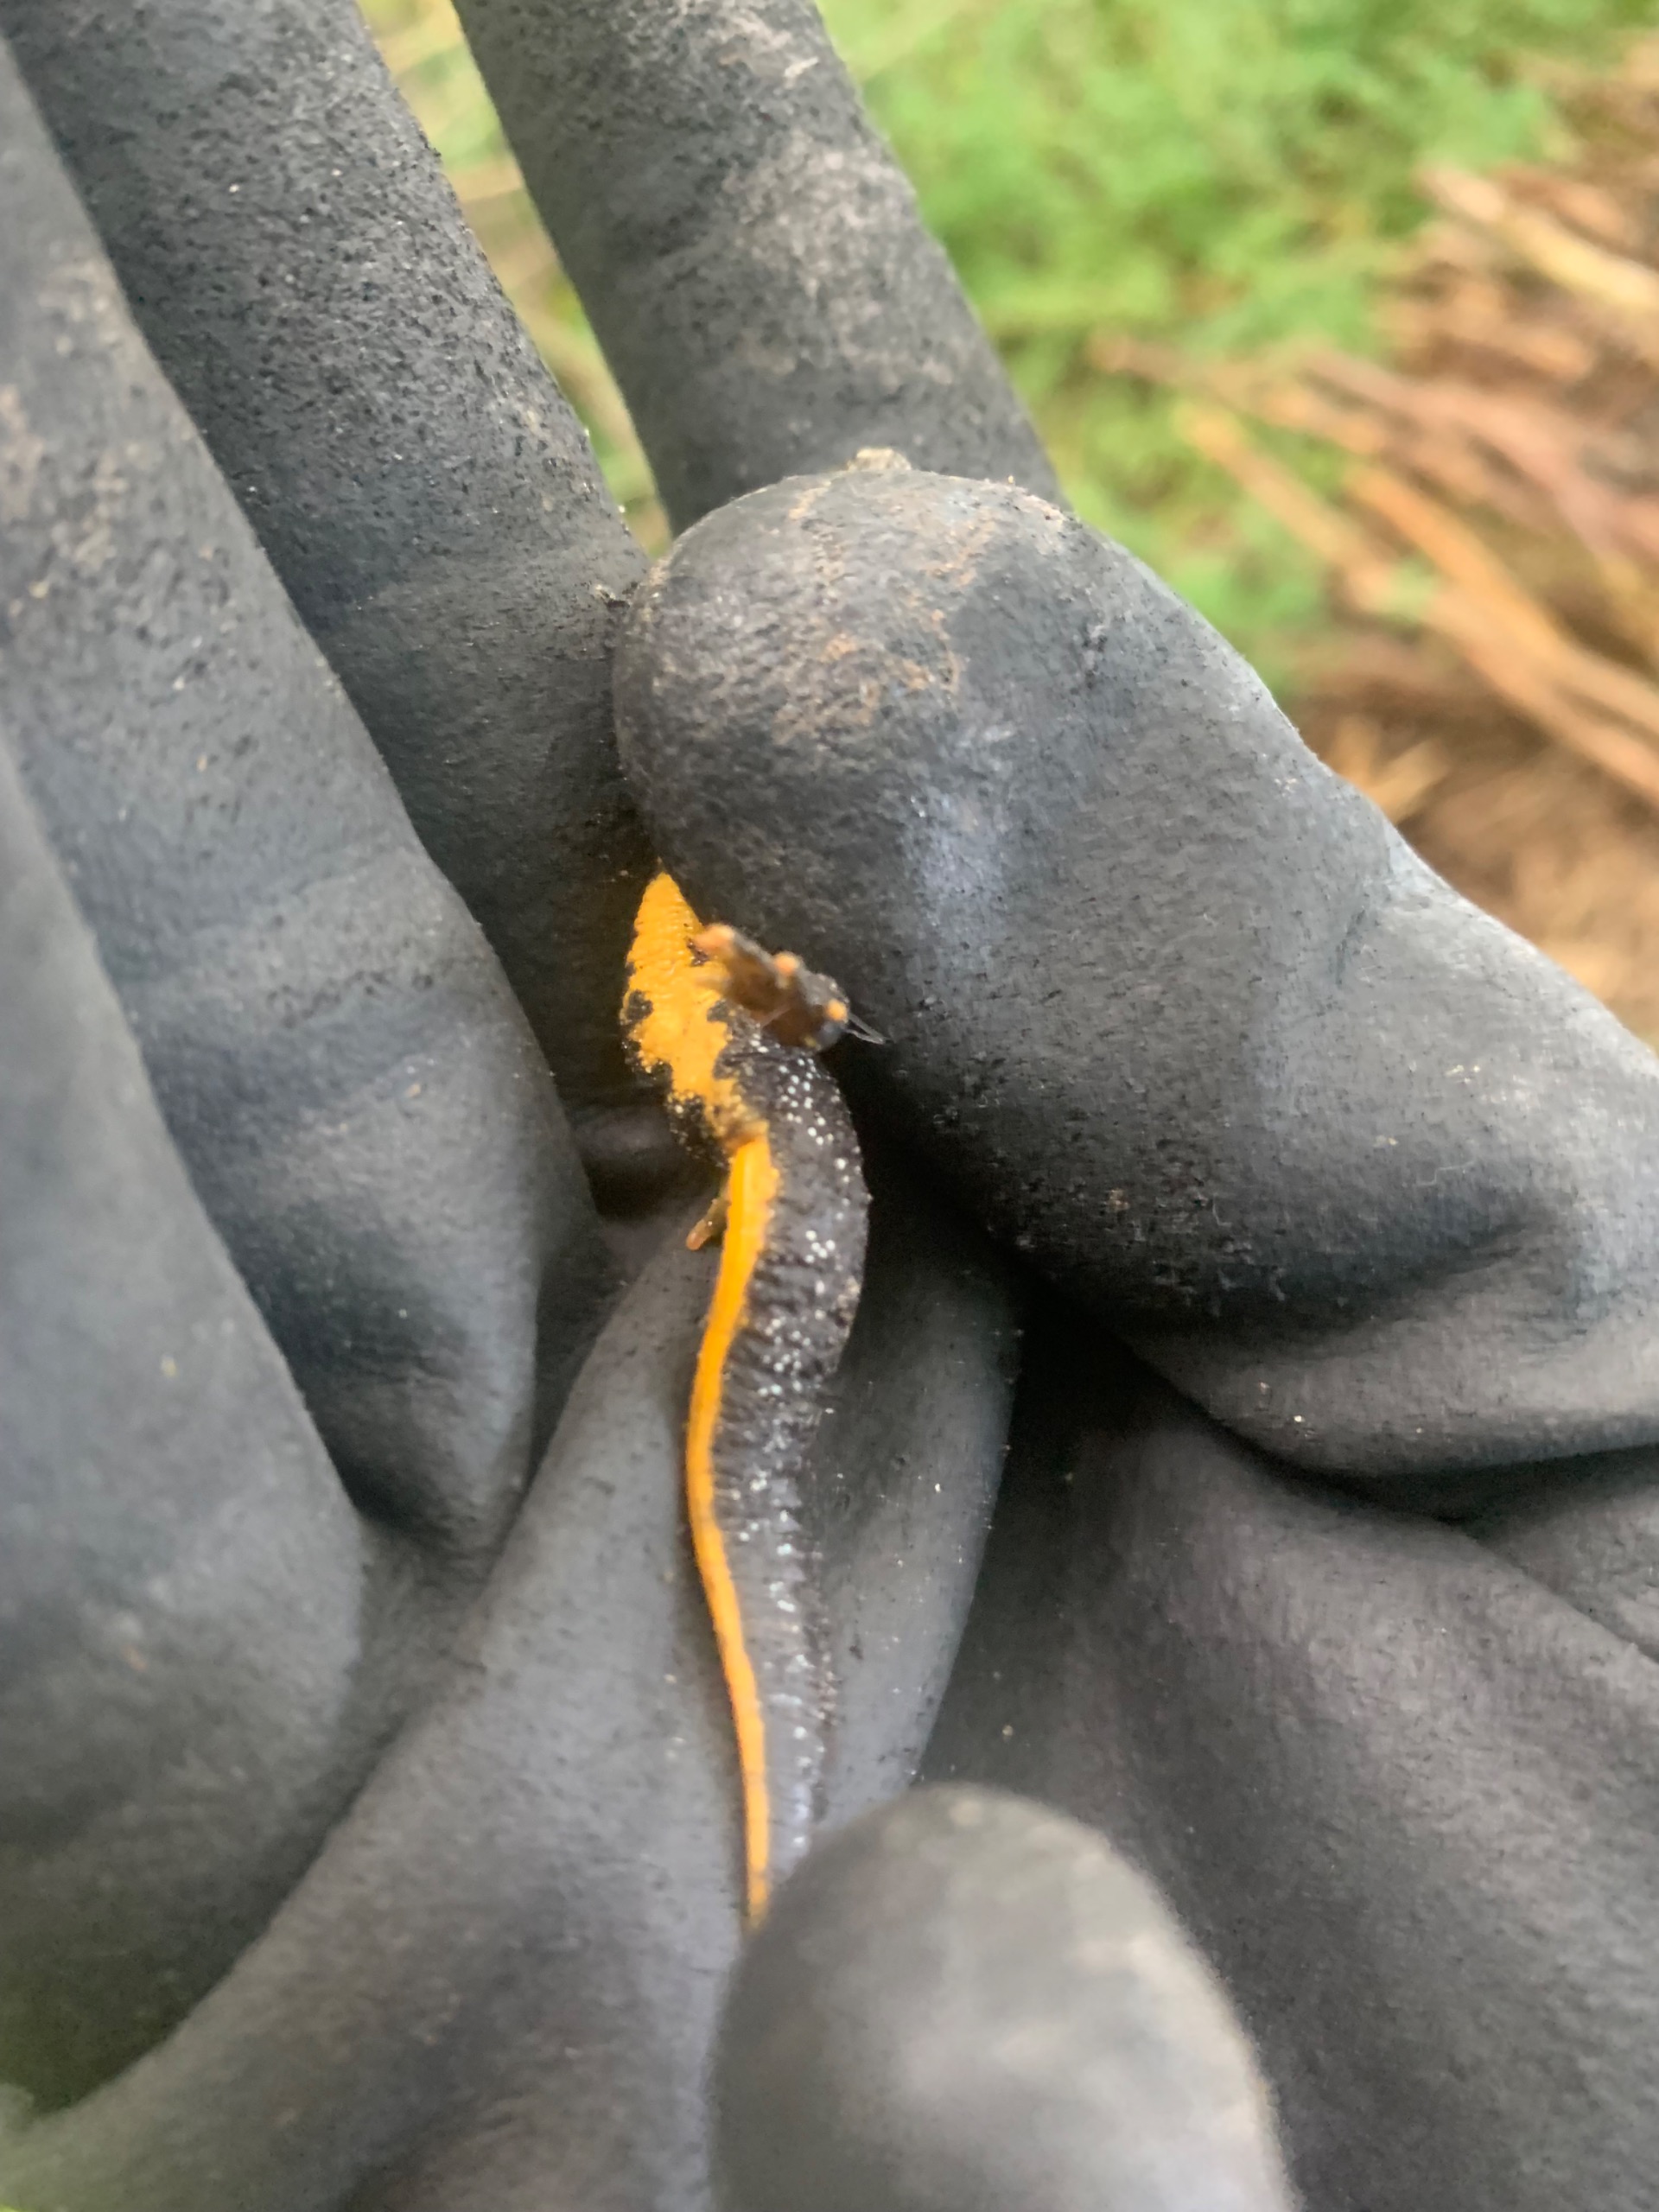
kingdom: Animalia
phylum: Chordata
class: Amphibia
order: Caudata
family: Salamandridae
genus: Triturus
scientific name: Triturus cristatus
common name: Stor vandsalamander
